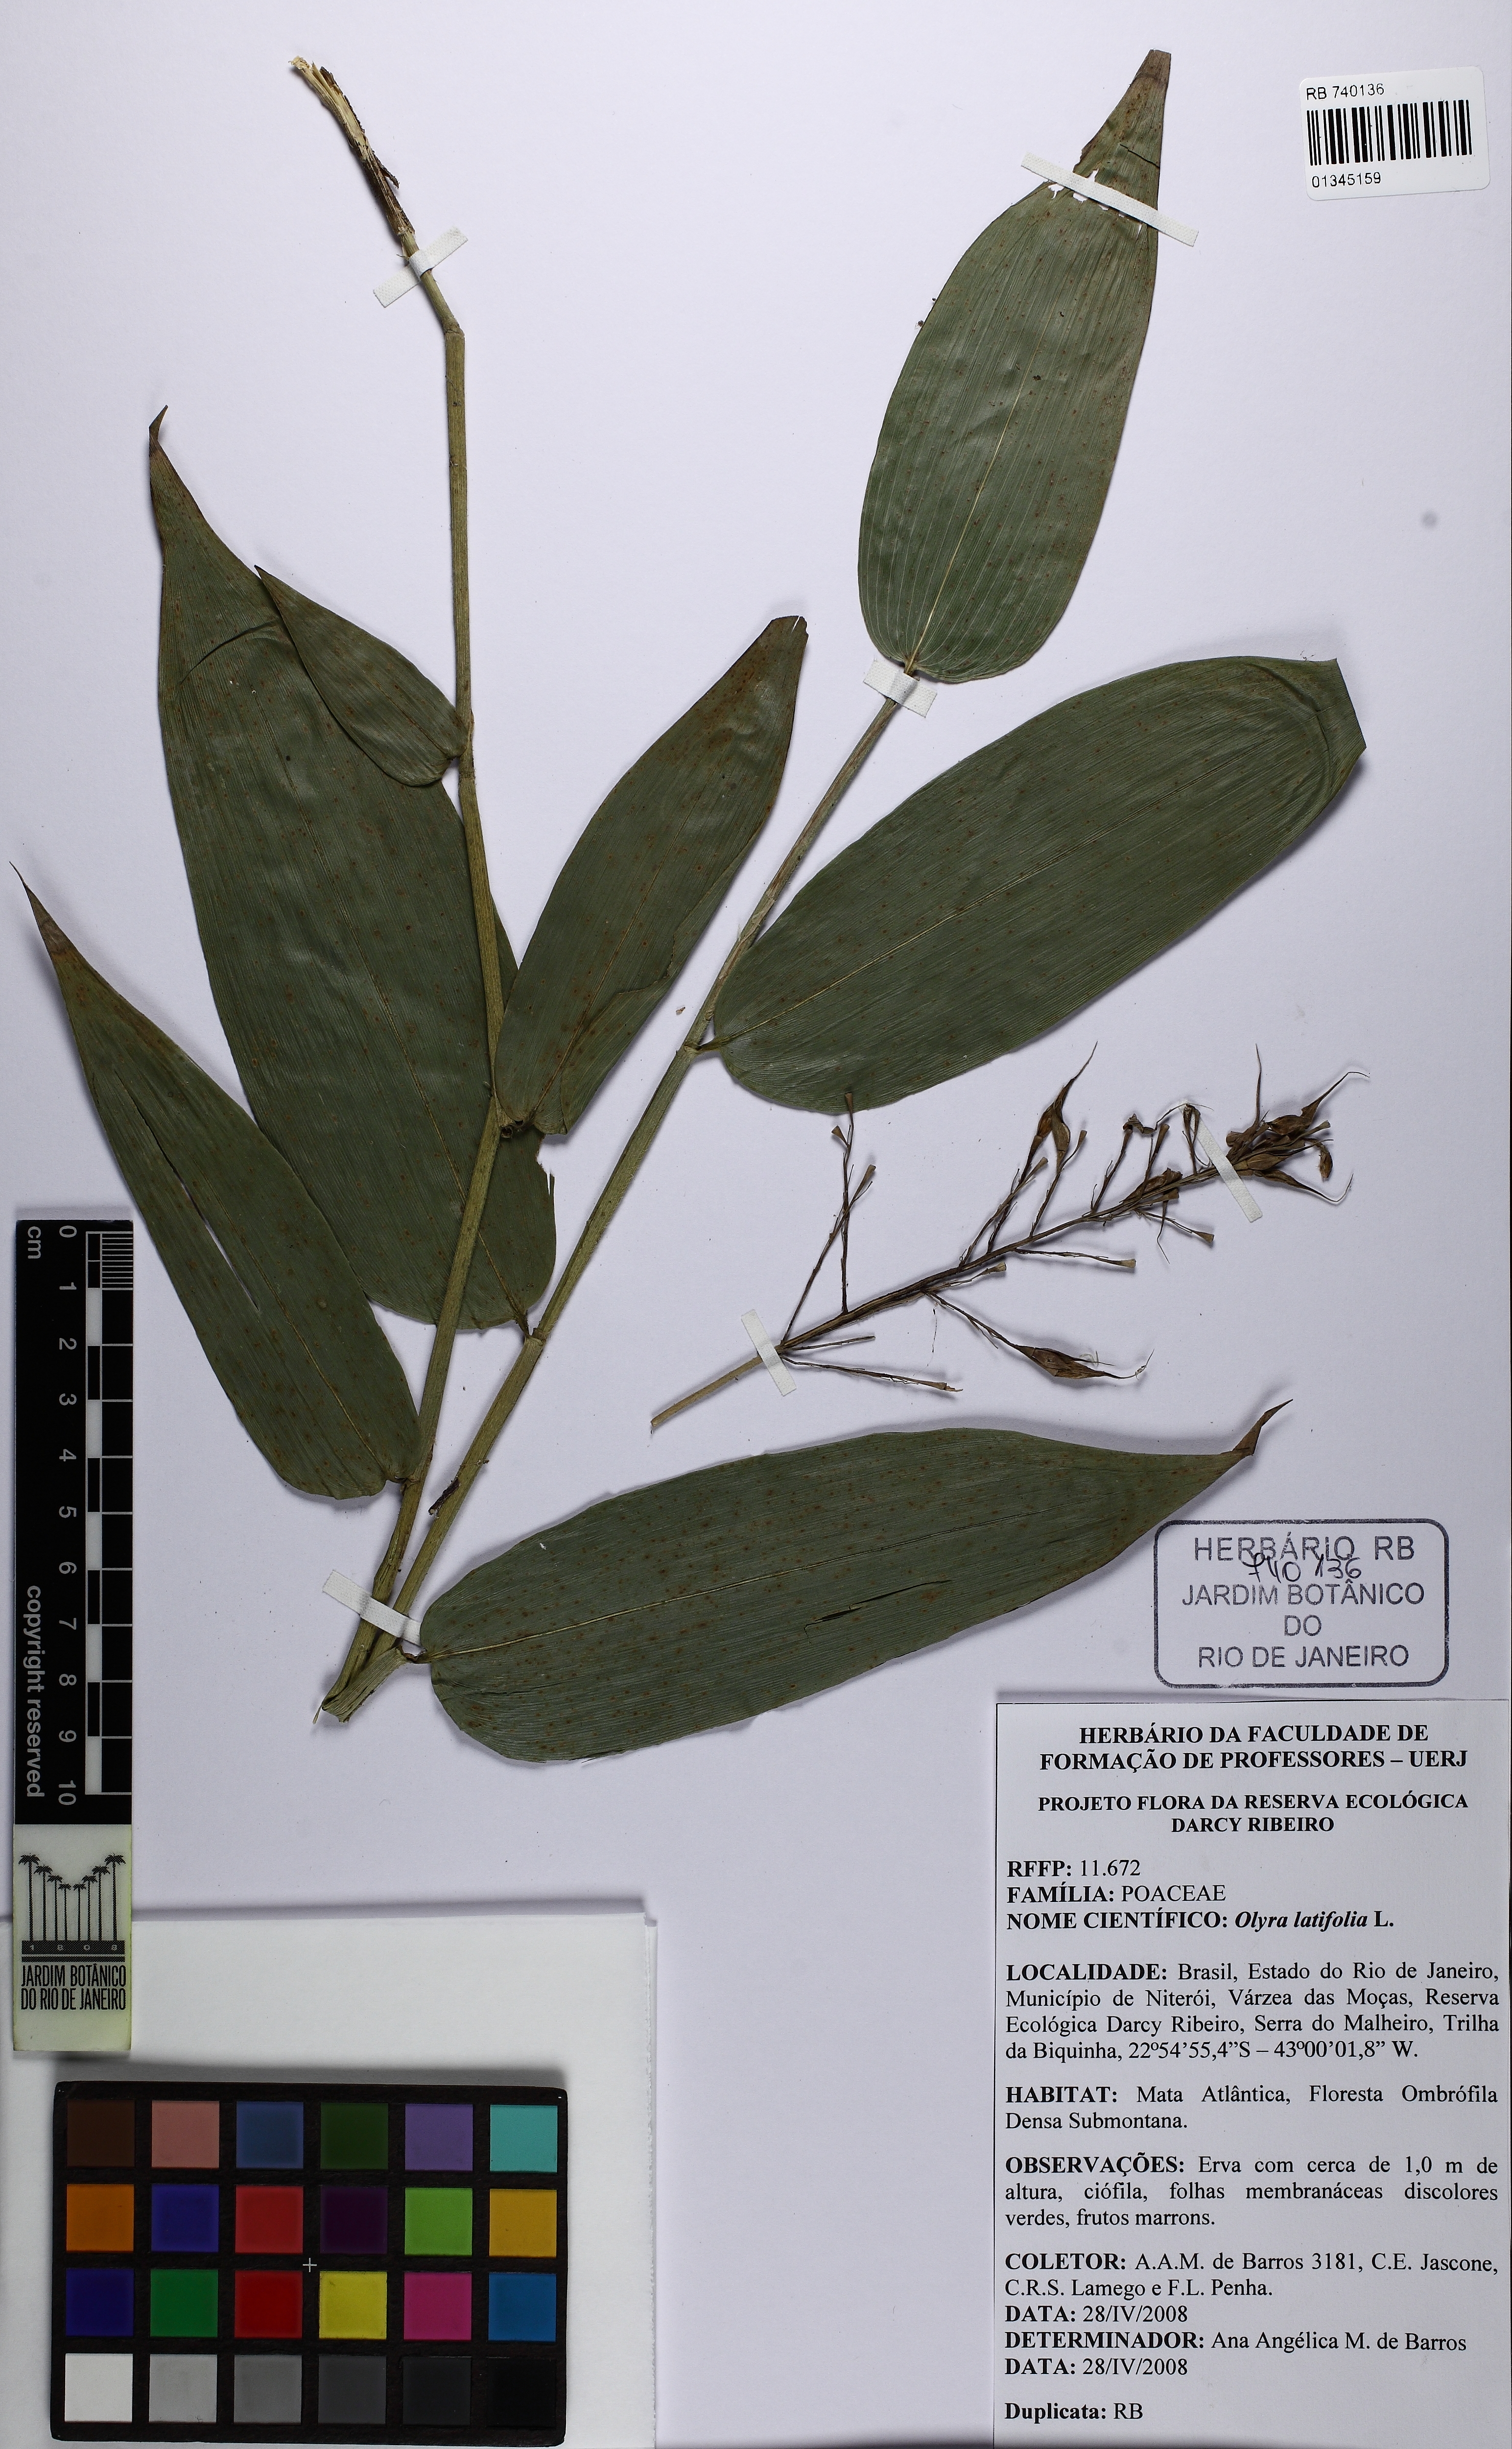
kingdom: Plantae
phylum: Tracheophyta
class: Liliopsida
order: Poales
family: Poaceae
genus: Olyra
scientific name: Olyra latifolia
